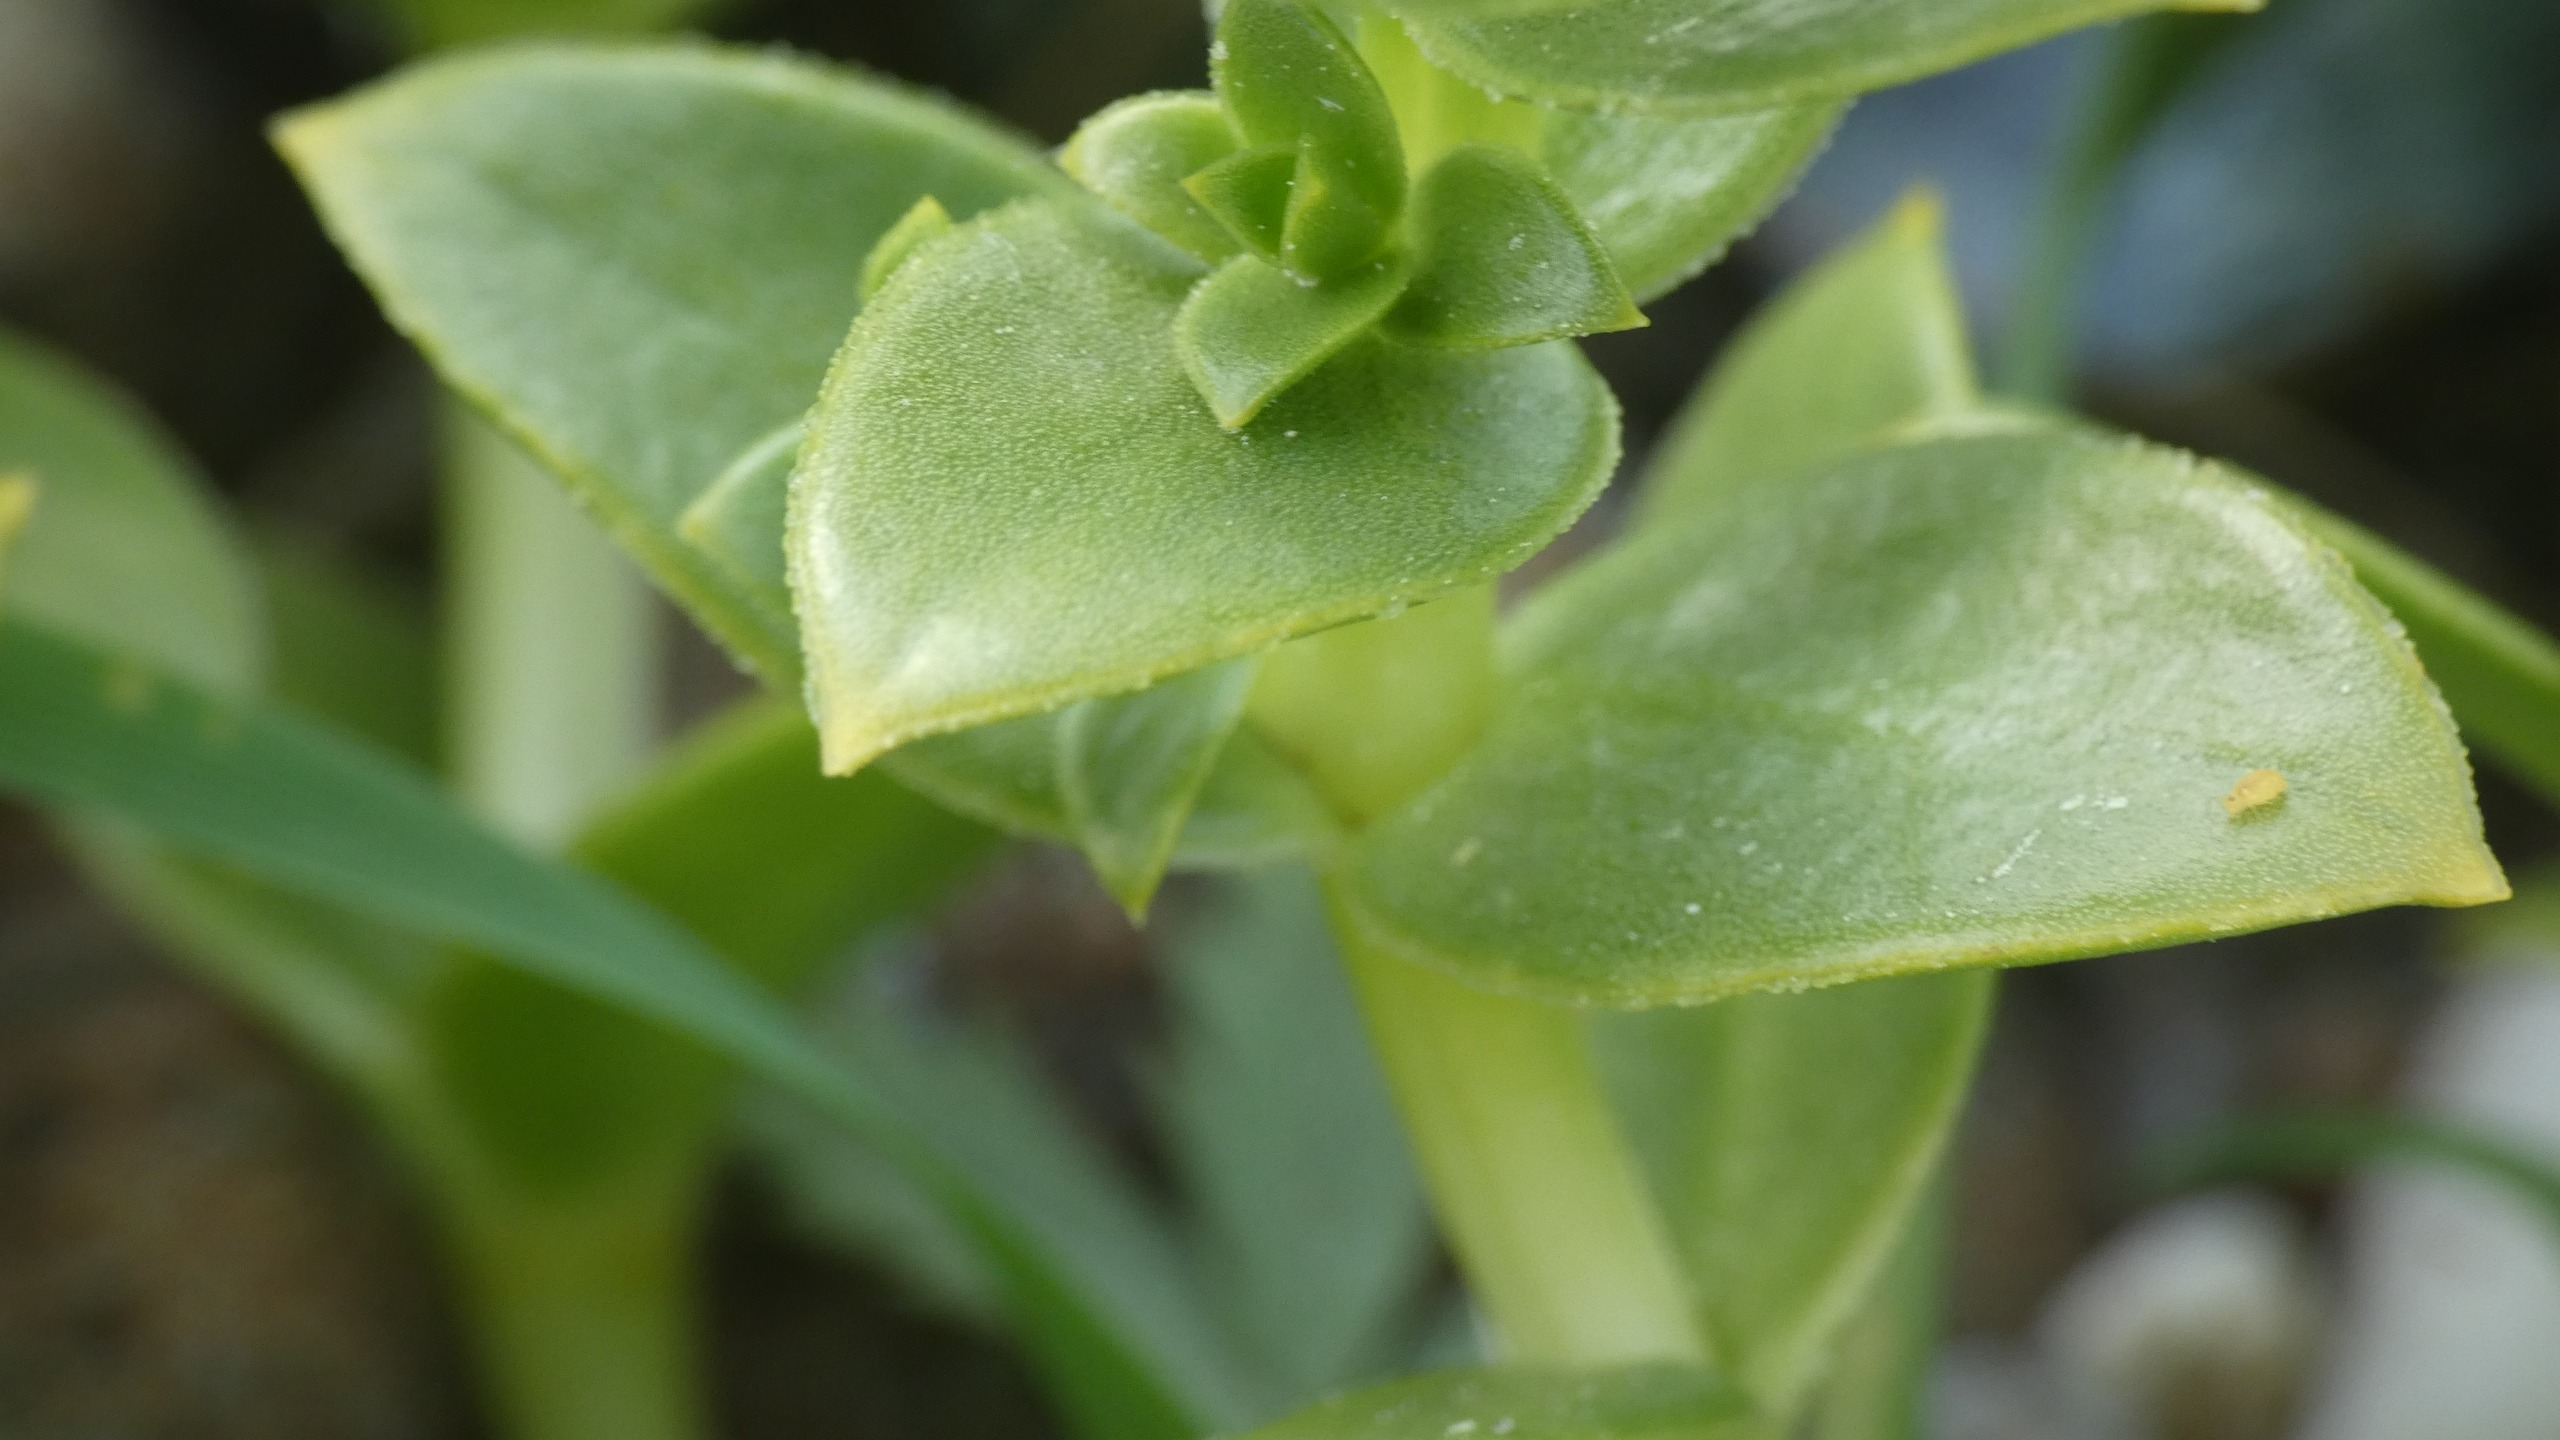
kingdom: Plantae
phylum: Tracheophyta
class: Magnoliopsida
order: Caryophyllales
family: Caryophyllaceae
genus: Honckenya
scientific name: Honckenya peploides
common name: Strandarve
